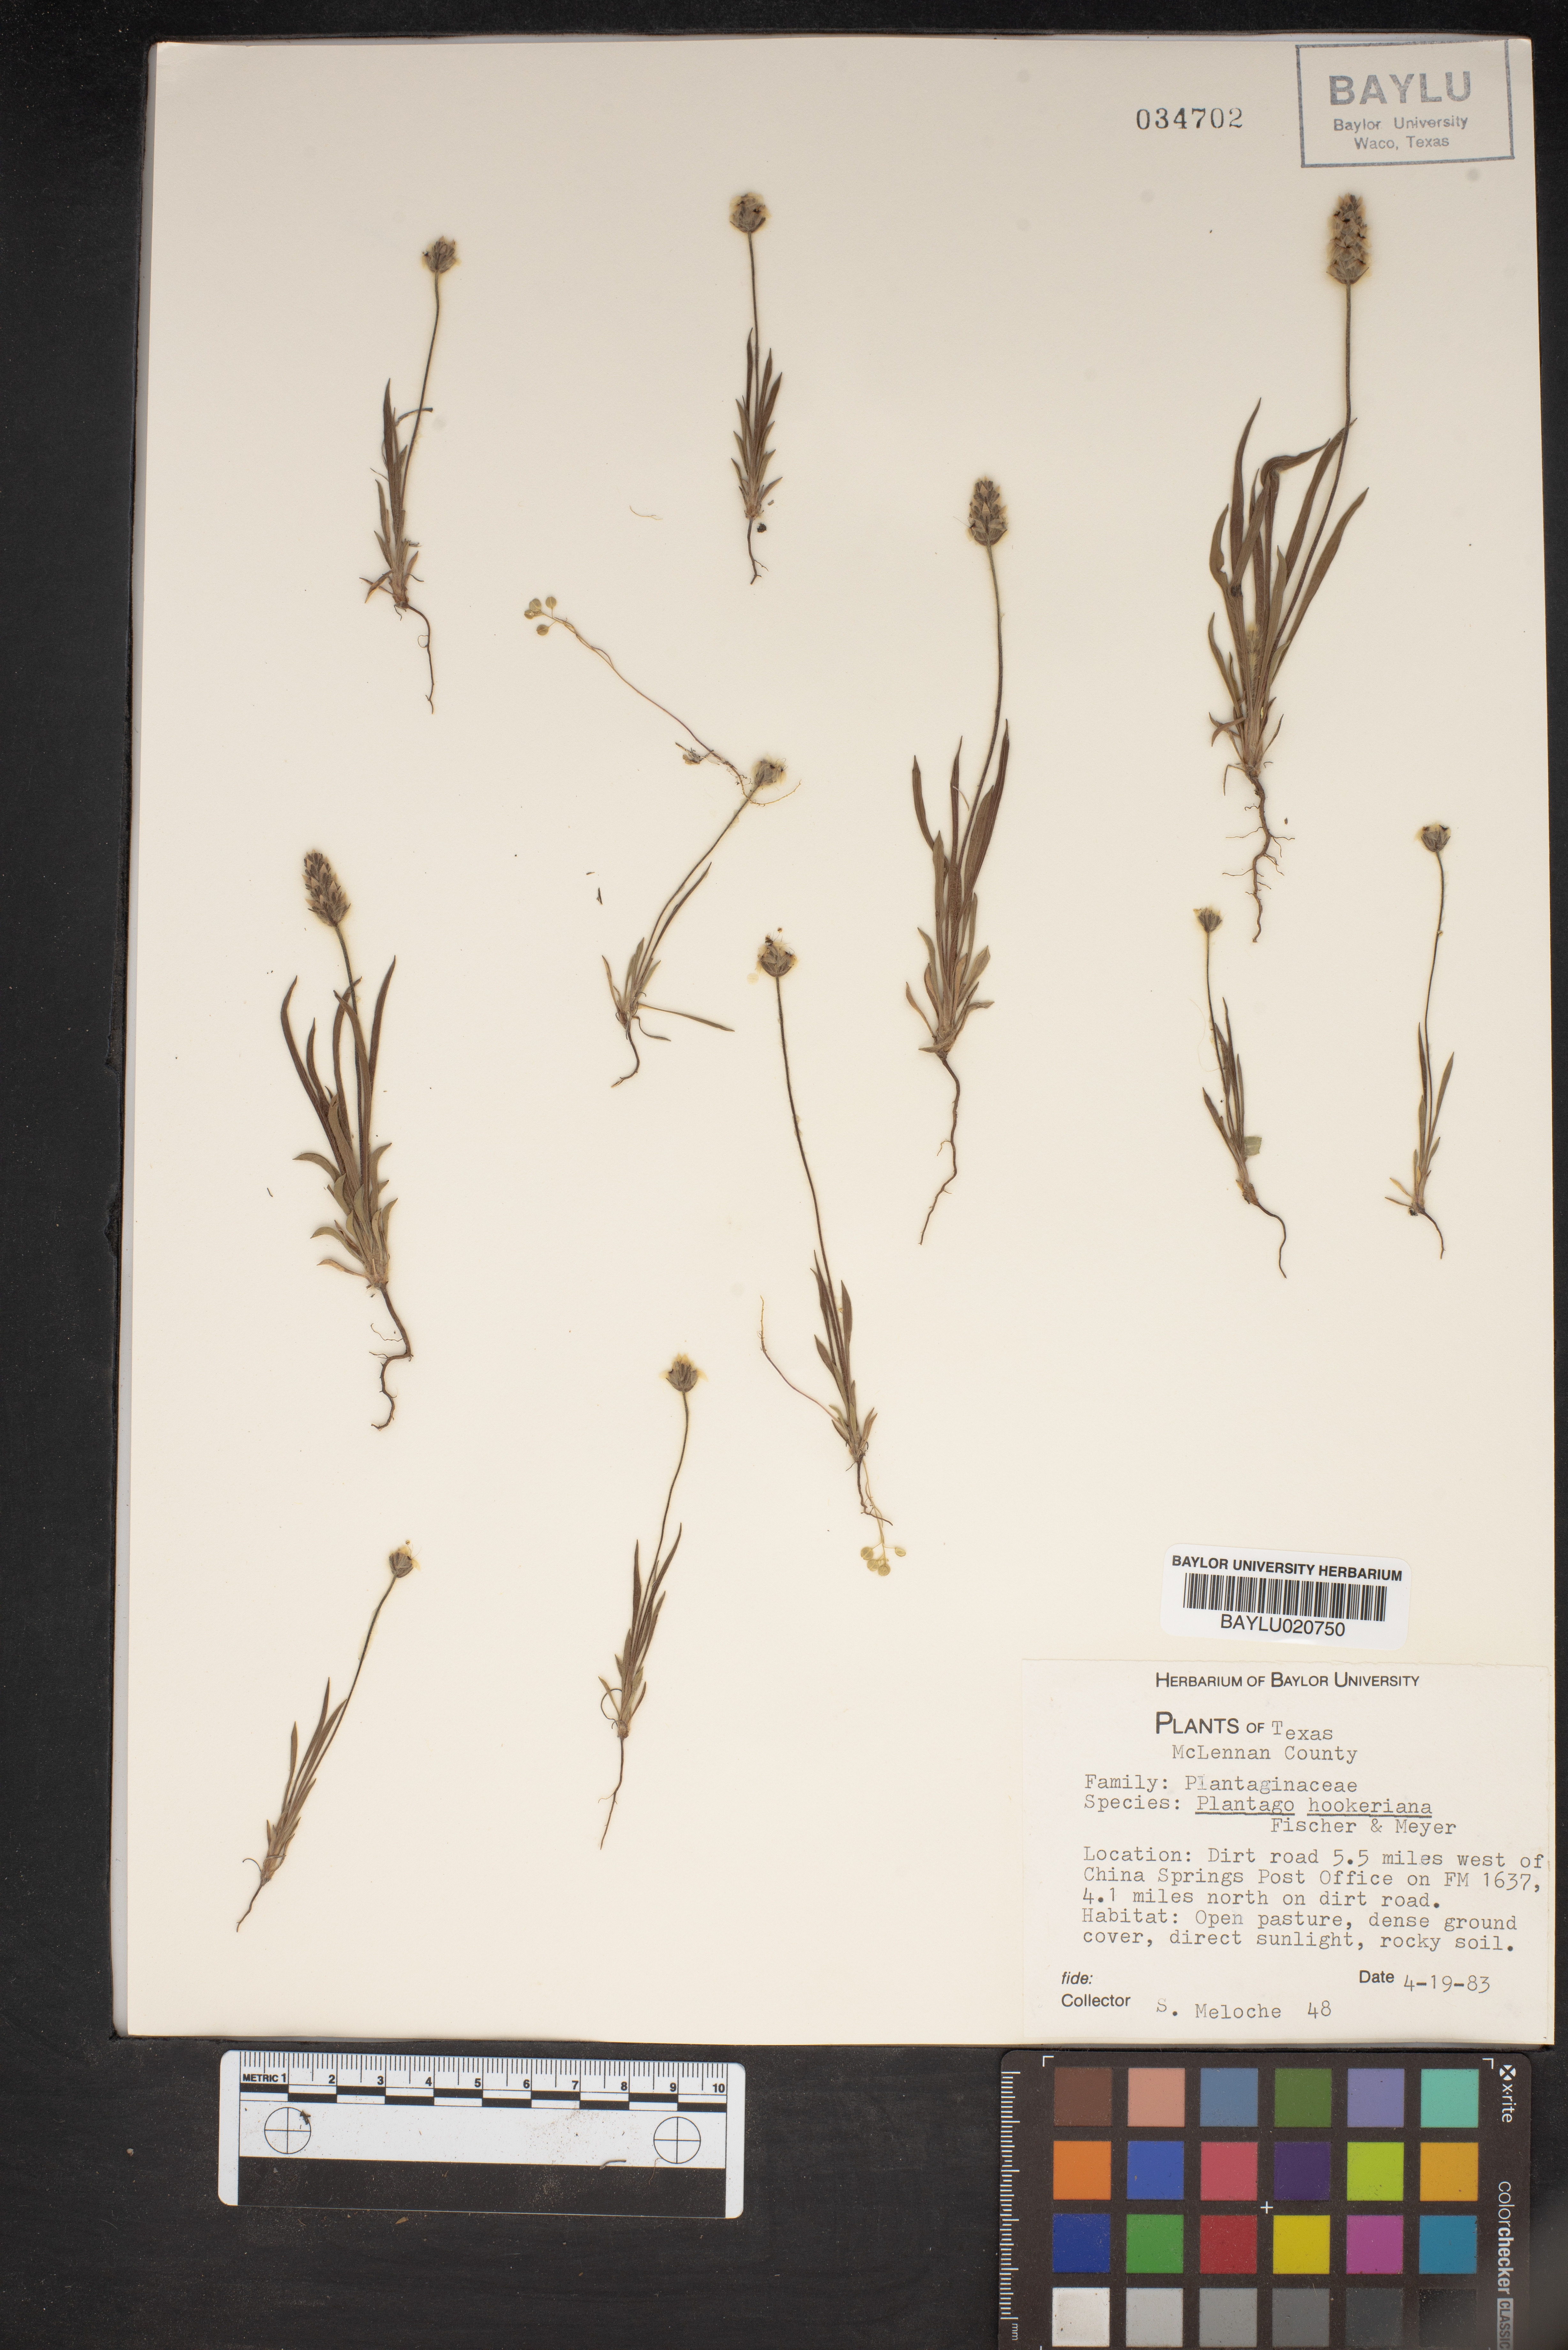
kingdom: Plantae
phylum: Tracheophyta
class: Magnoliopsida
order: Lamiales
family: Plantaginaceae
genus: Plantago
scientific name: Plantago hookeriana
